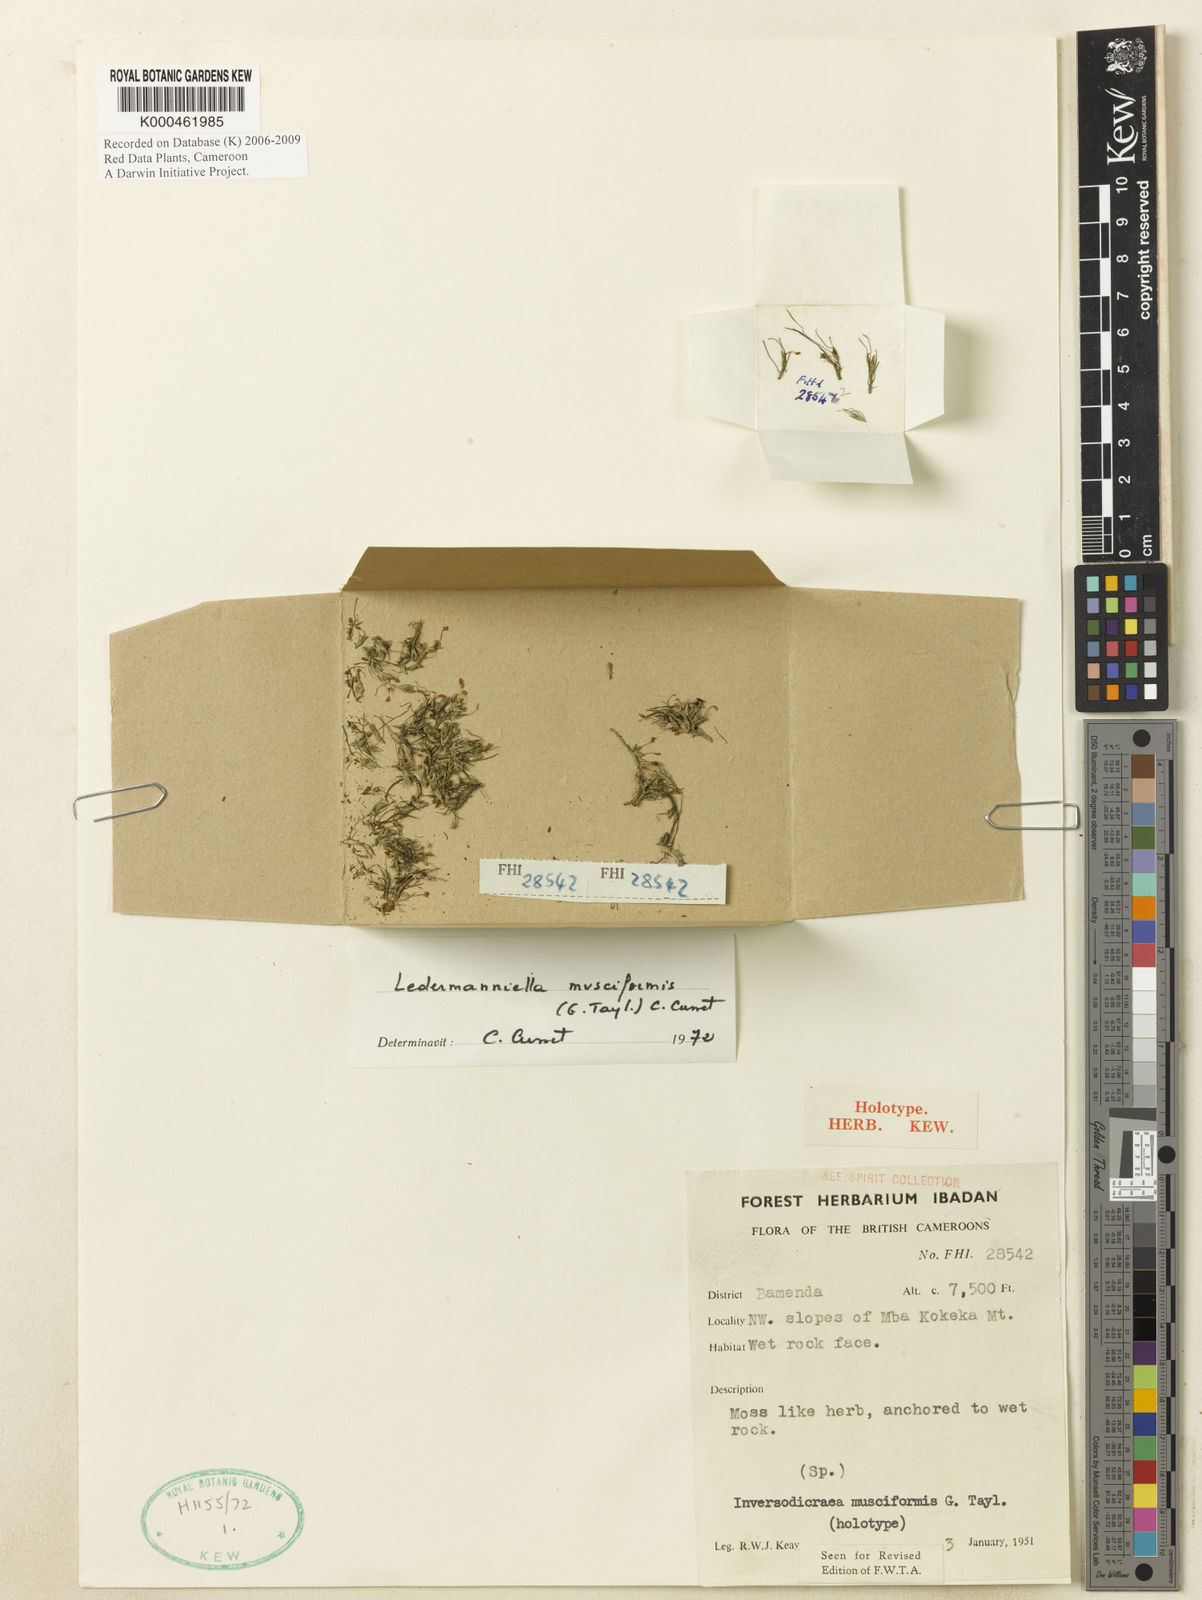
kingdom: Plantae
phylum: Tracheophyta
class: Magnoliopsida
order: Malpighiales
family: Podostemaceae
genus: Ledermanniella
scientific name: Ledermanniella musciformis
